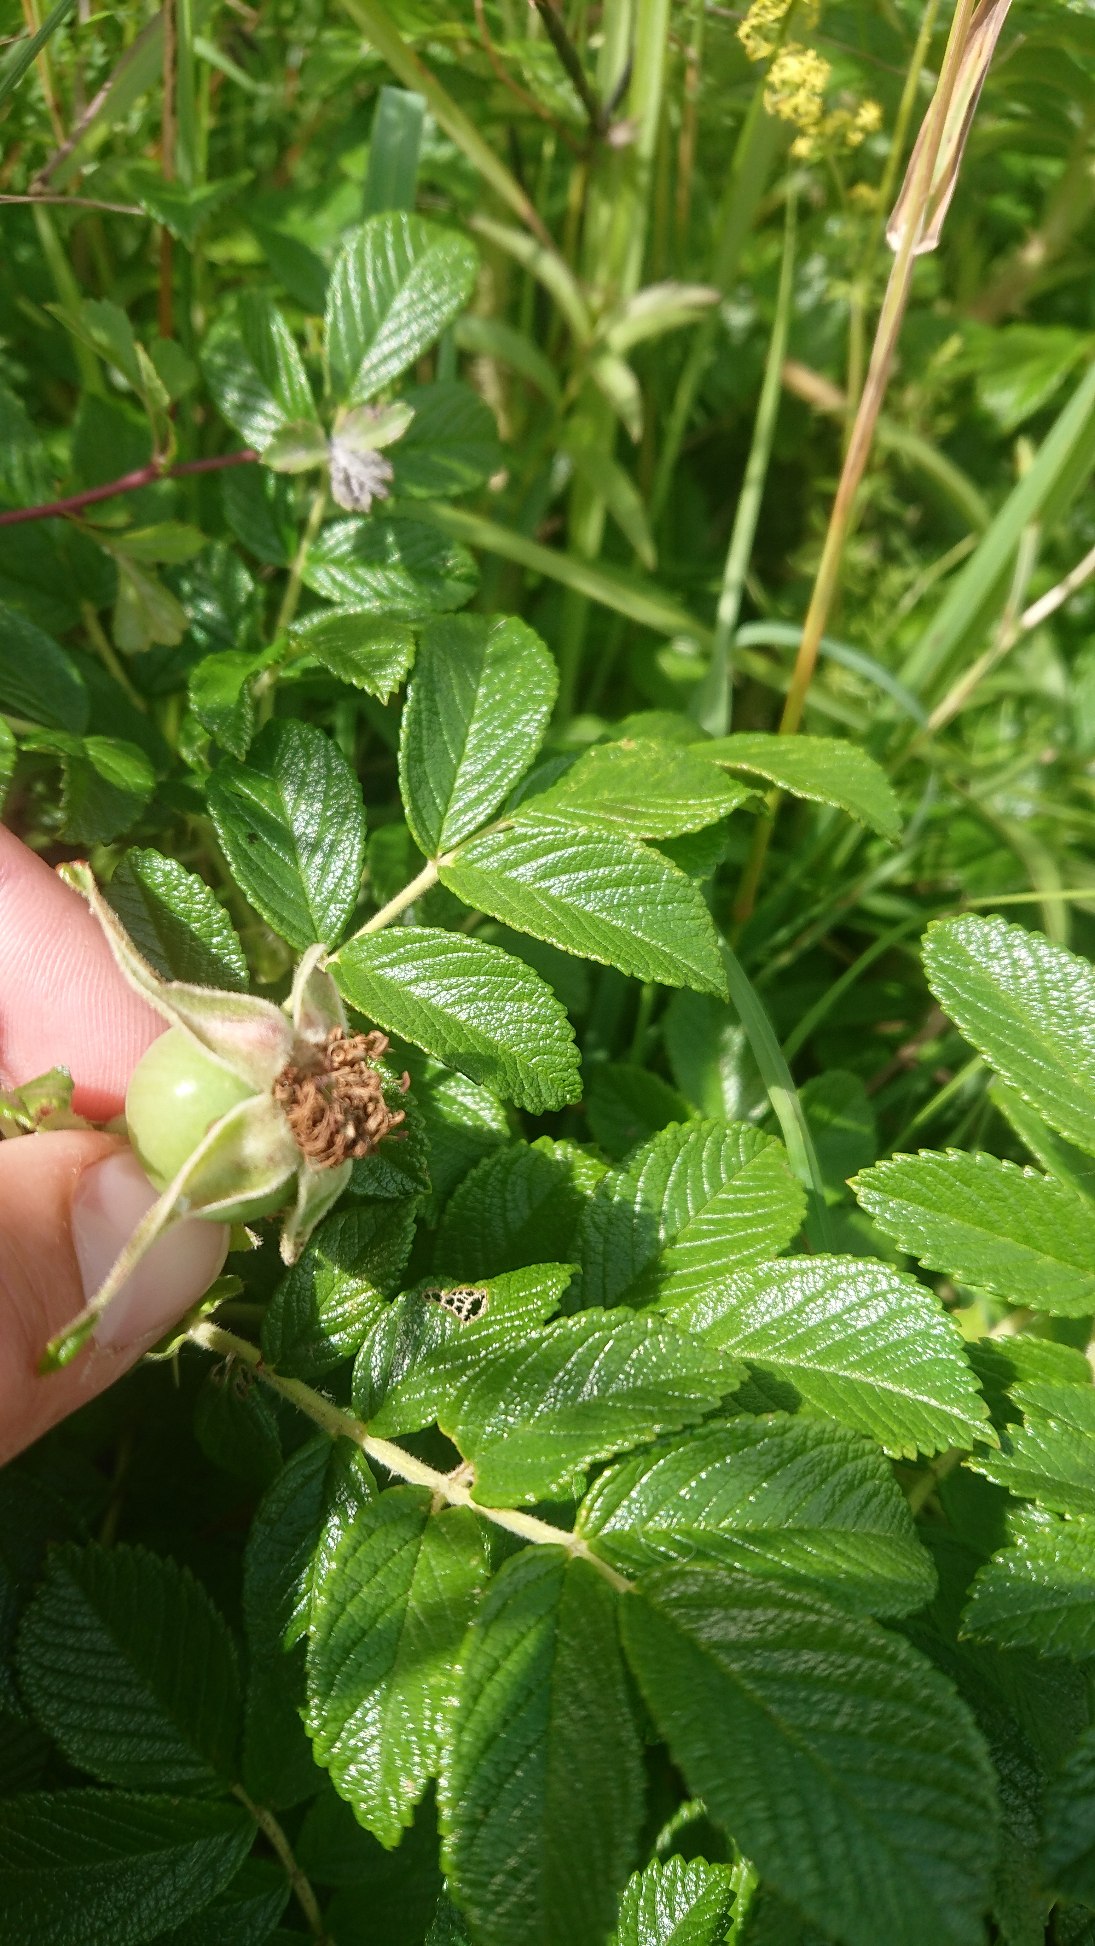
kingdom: Plantae
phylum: Tracheophyta
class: Magnoliopsida
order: Rosales
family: Rosaceae
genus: Rosa
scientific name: Rosa rugosa
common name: Rynket rose
